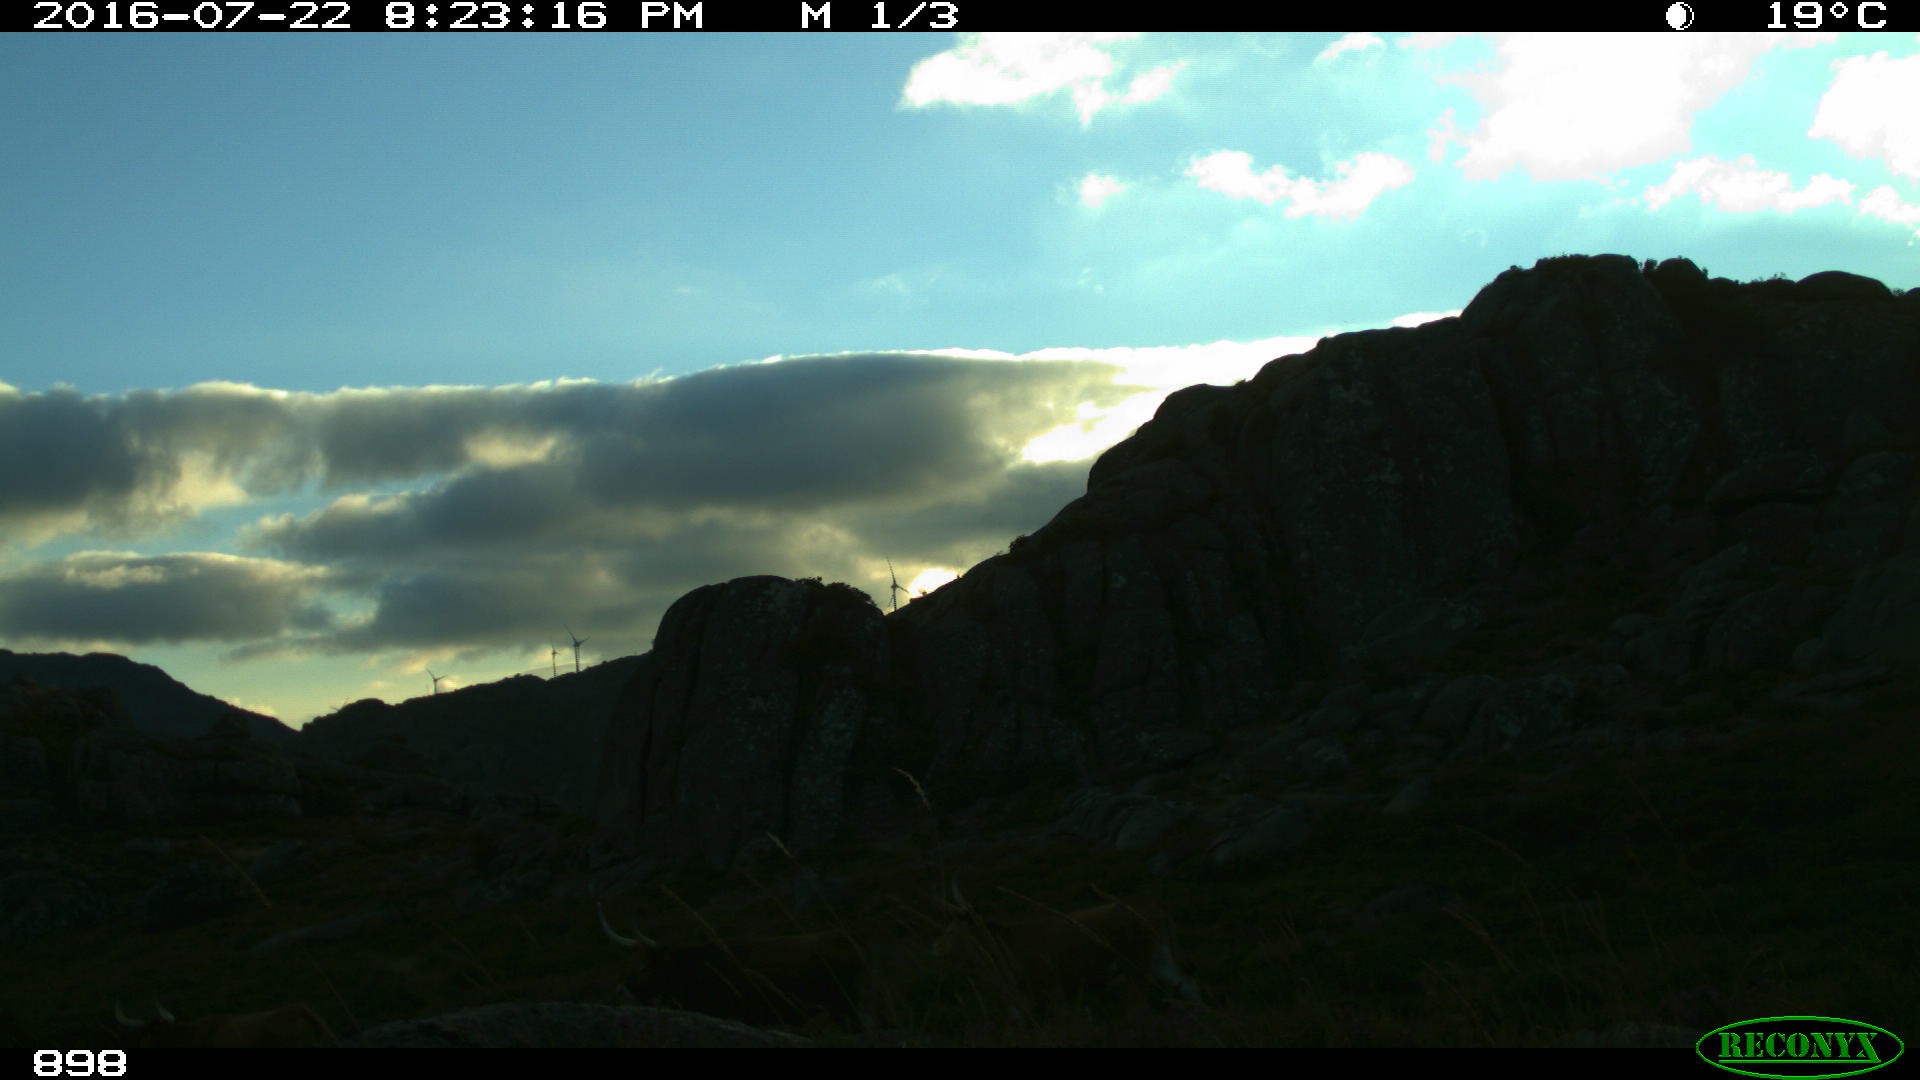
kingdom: Animalia
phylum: Chordata
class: Mammalia
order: Artiodactyla
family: Bovidae
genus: Bos
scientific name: Bos taurus
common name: Domesticated cattle
